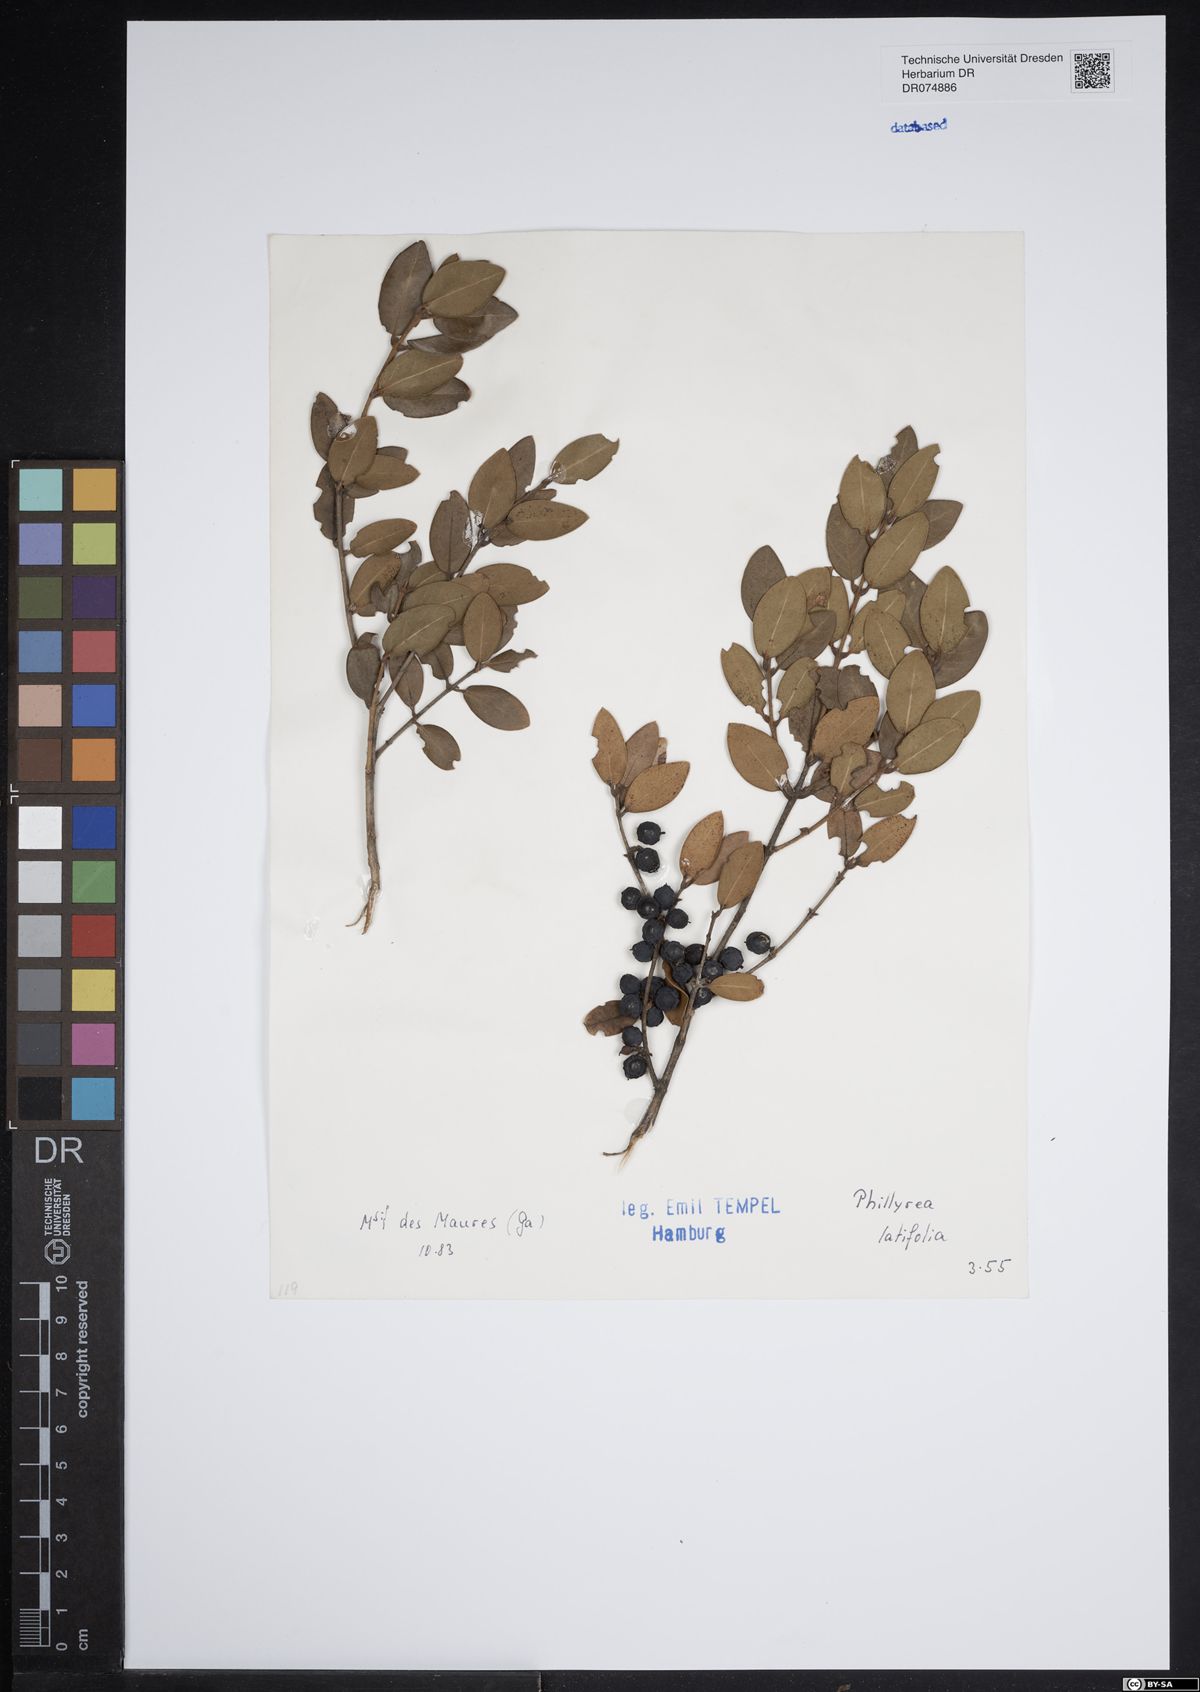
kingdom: Plantae
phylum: Tracheophyta
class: Magnoliopsida
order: Lamiales
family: Oleaceae
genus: Phillyrea
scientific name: Phillyrea latifolia
